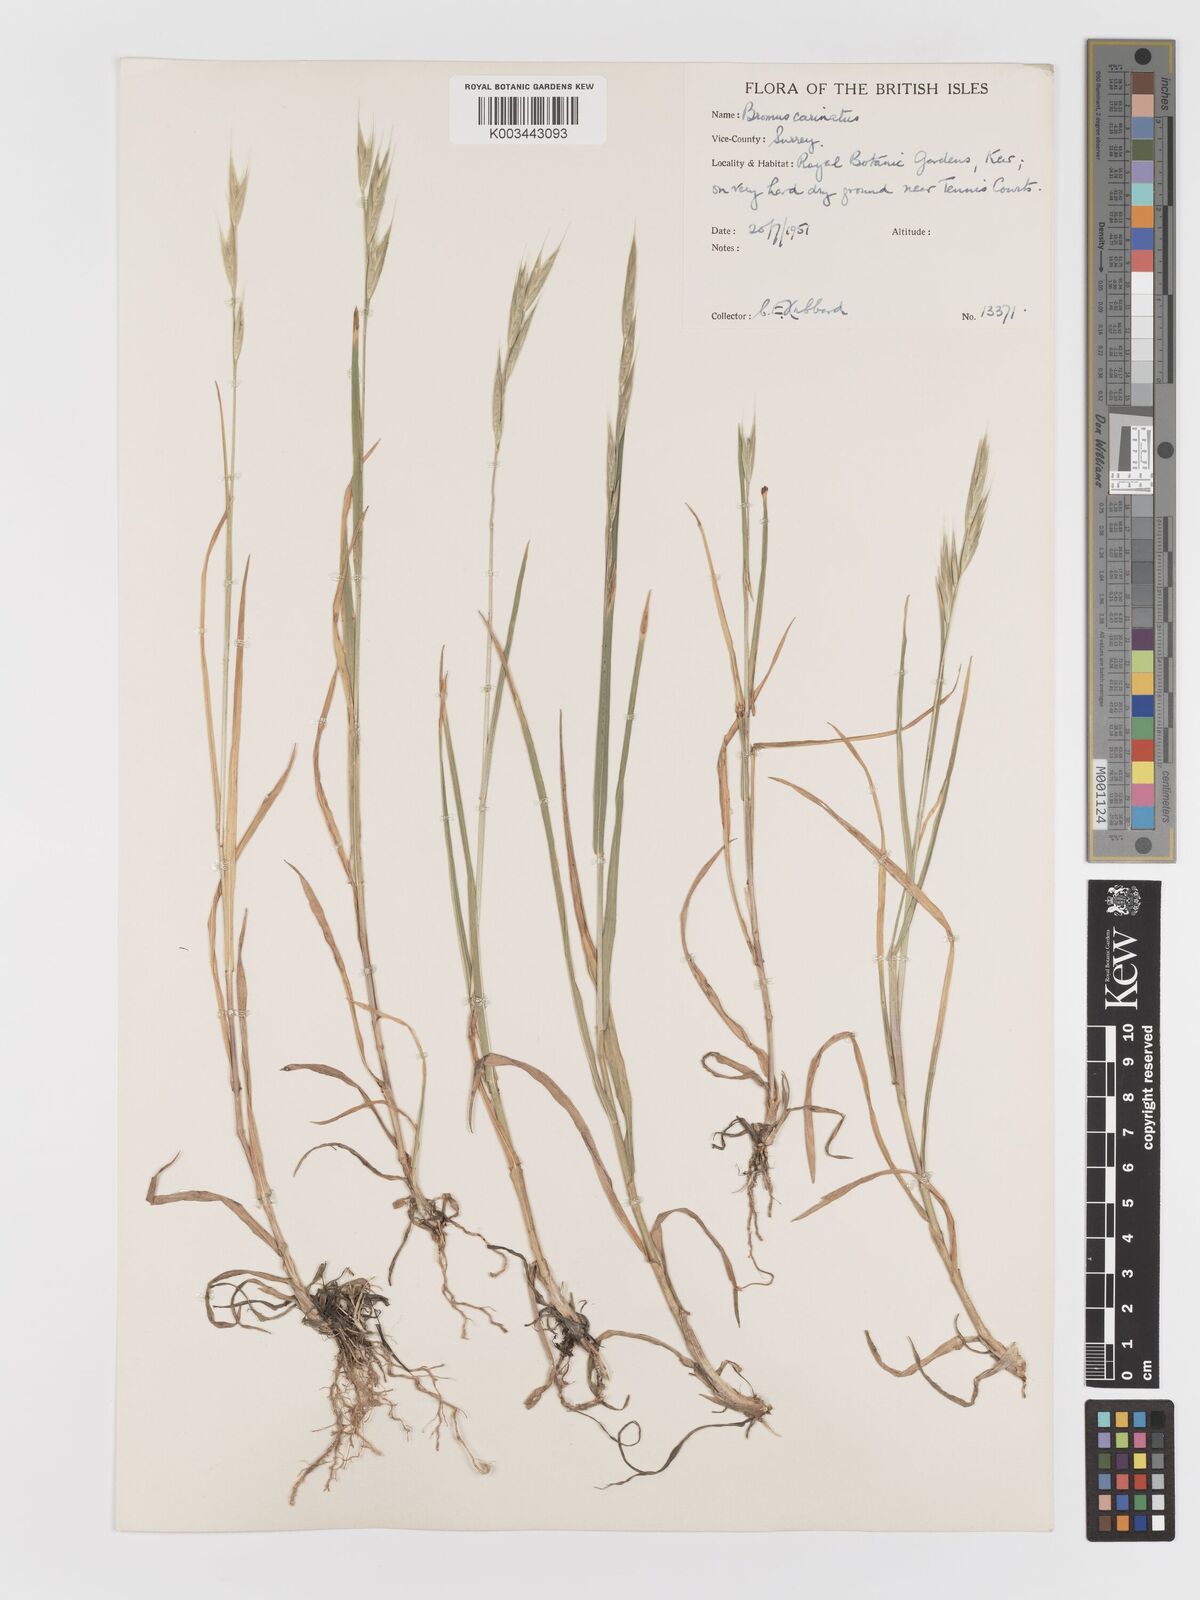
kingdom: Plantae
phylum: Tracheophyta
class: Liliopsida
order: Poales
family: Poaceae
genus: Bromus
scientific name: Bromus carinatus
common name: Mountain brome
